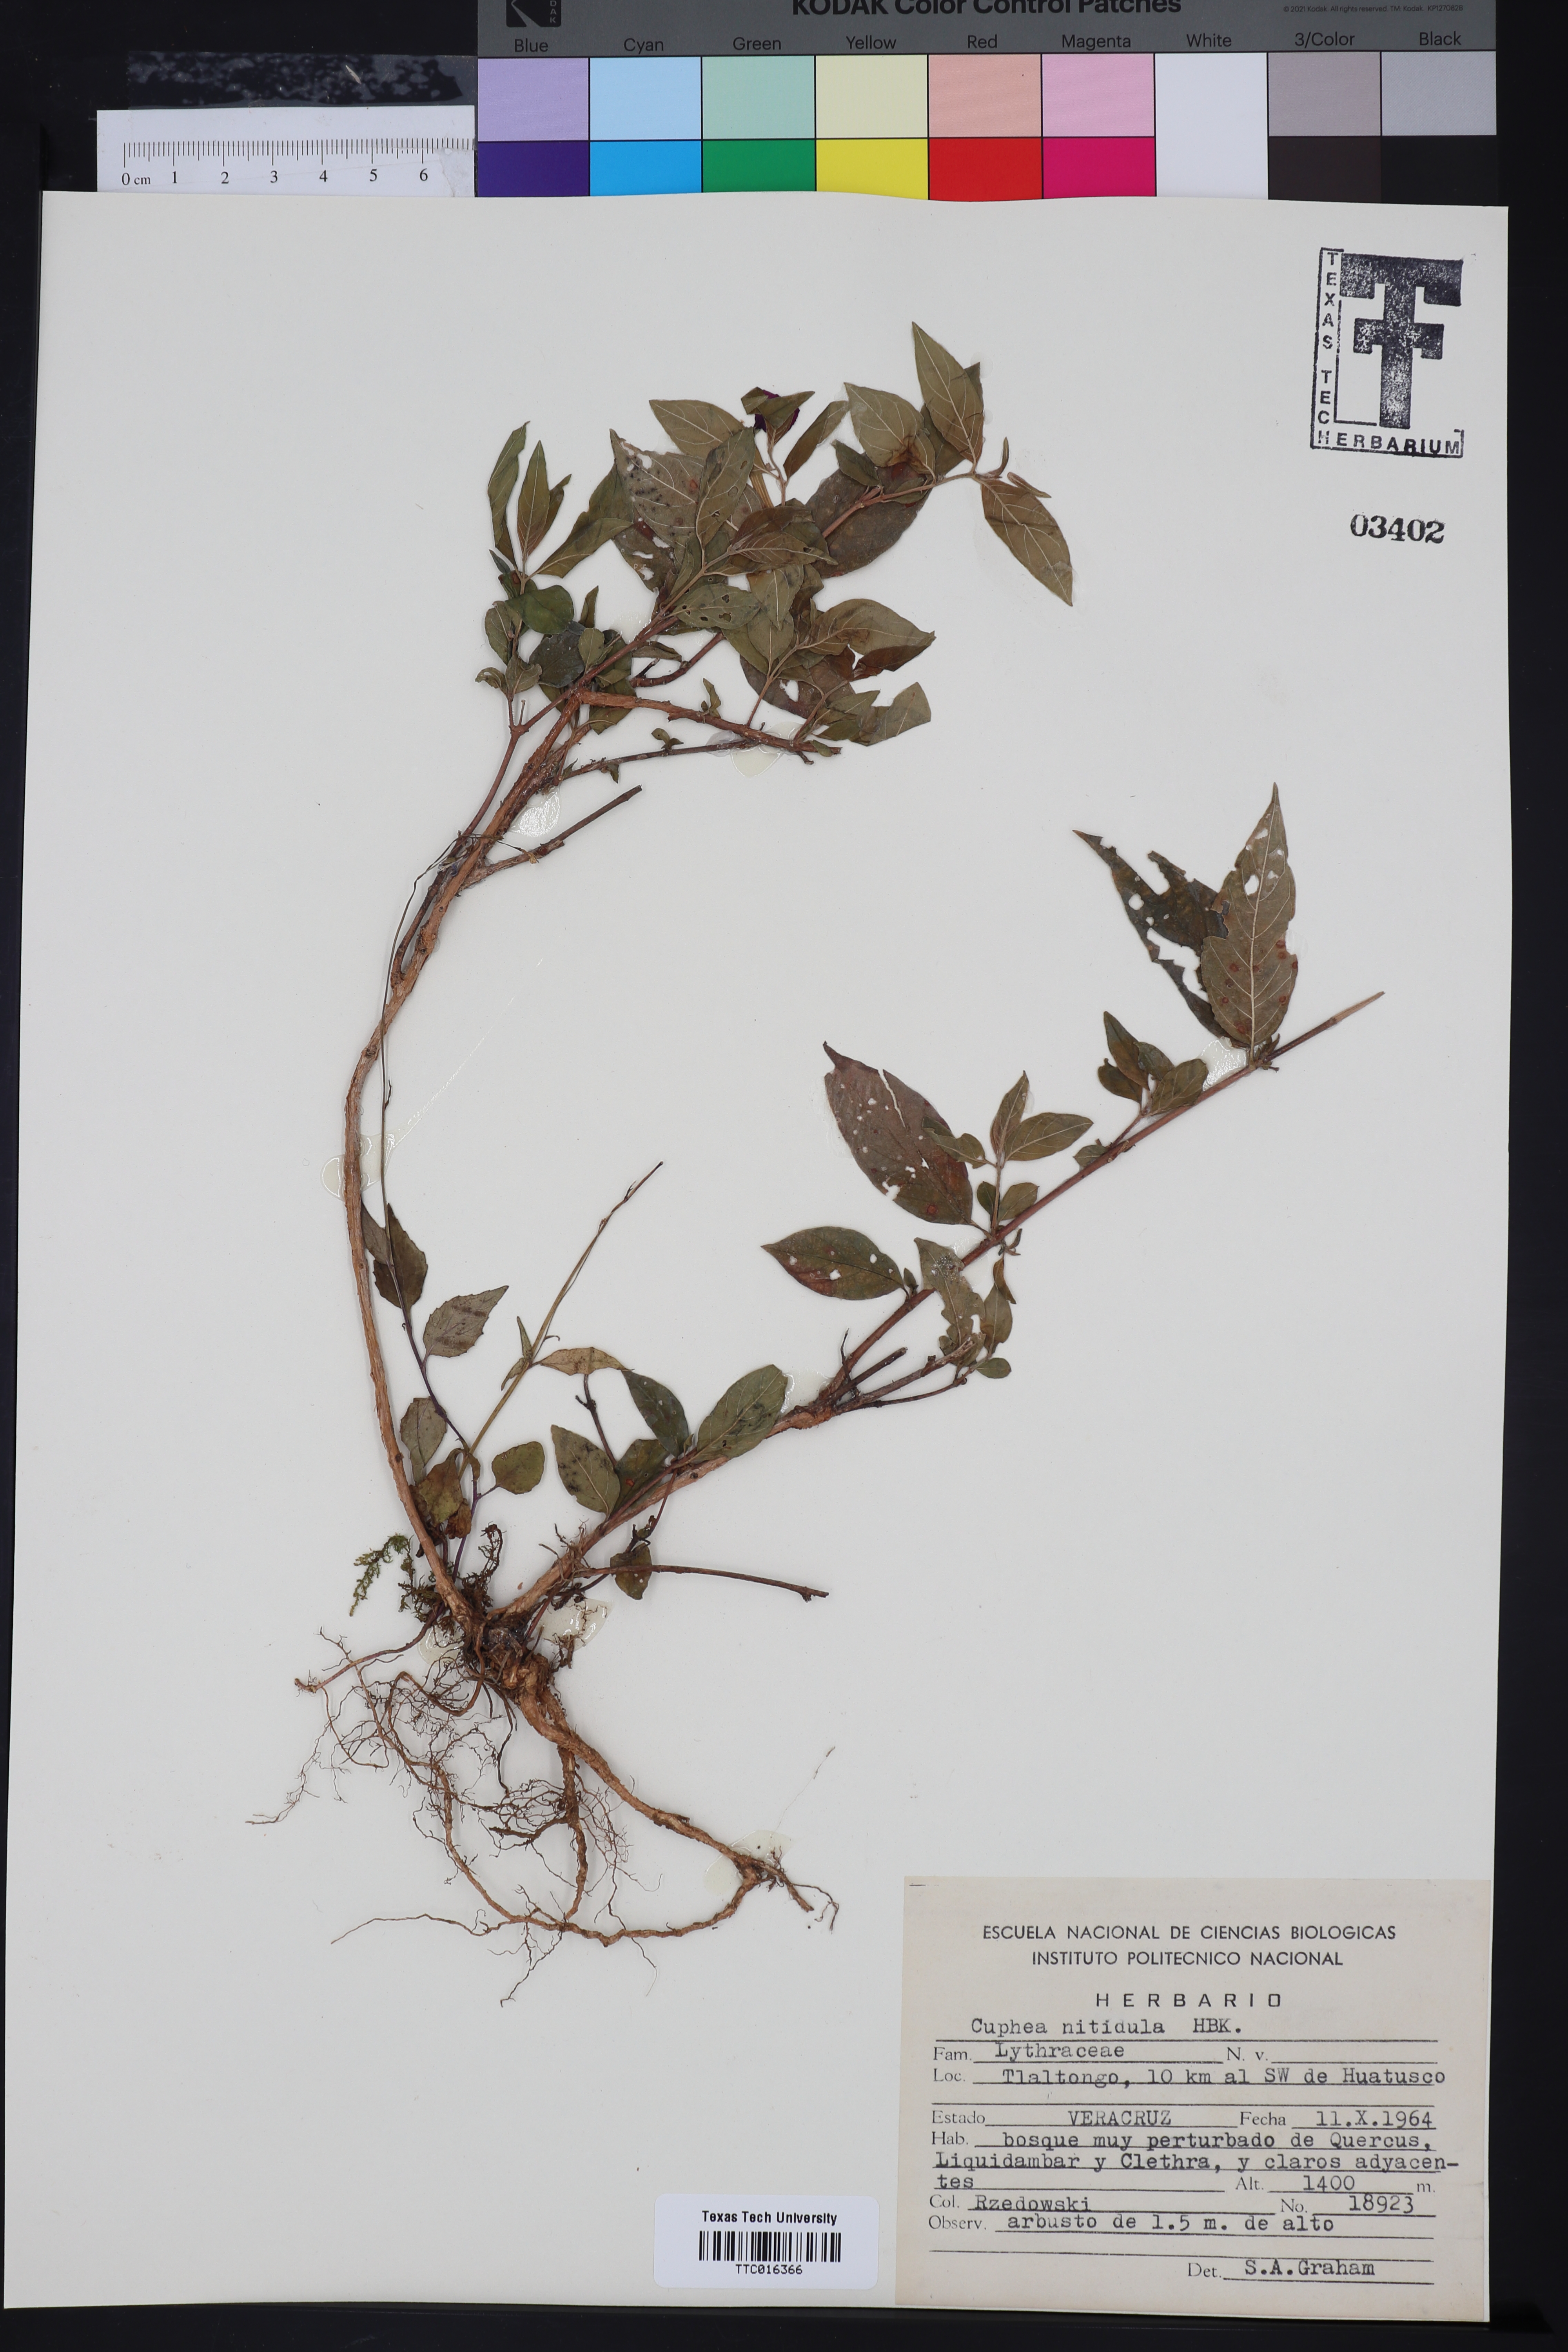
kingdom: Plantae
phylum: Tracheophyta
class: Magnoliopsida
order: Myrtales
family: Lythraceae
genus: Cuphea
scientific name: Cuphea nitidula
